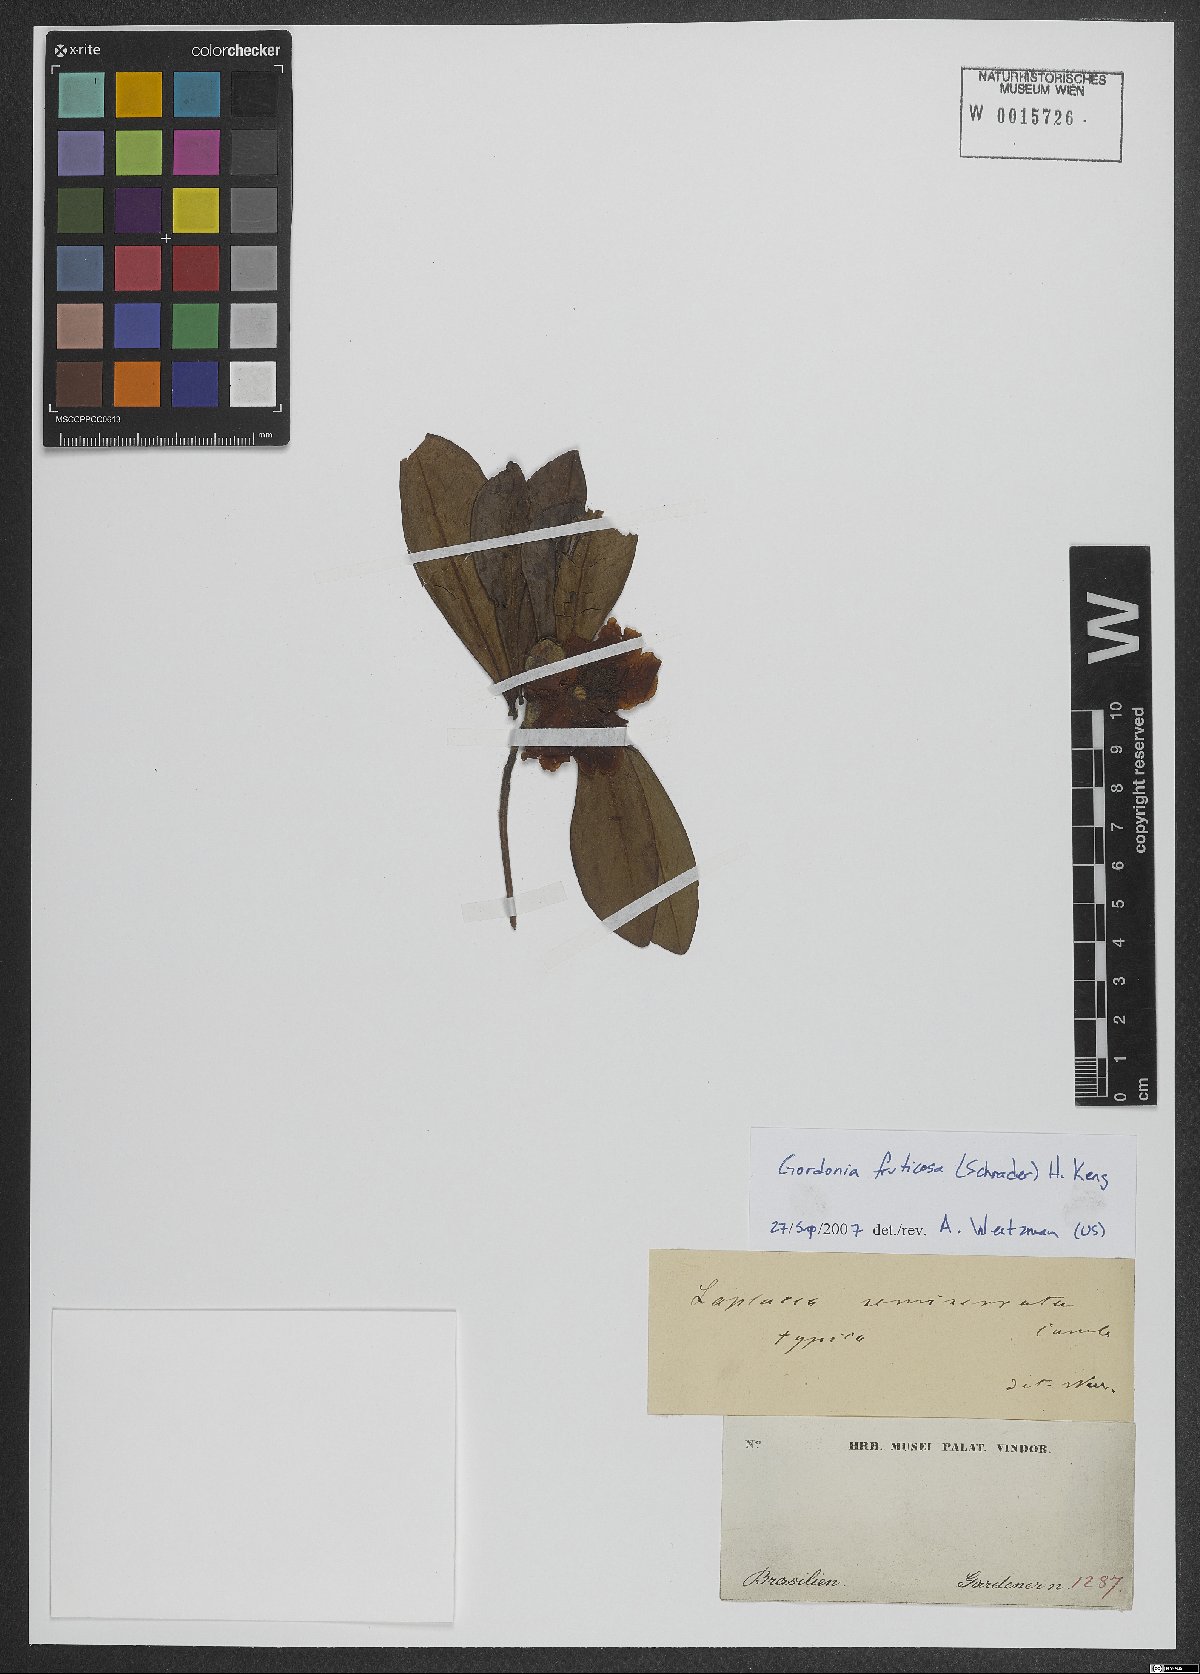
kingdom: Plantae
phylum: Tracheophyta
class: Magnoliopsida
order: Ericales
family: Theaceae
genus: Gordonia
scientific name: Gordonia fruticosa
